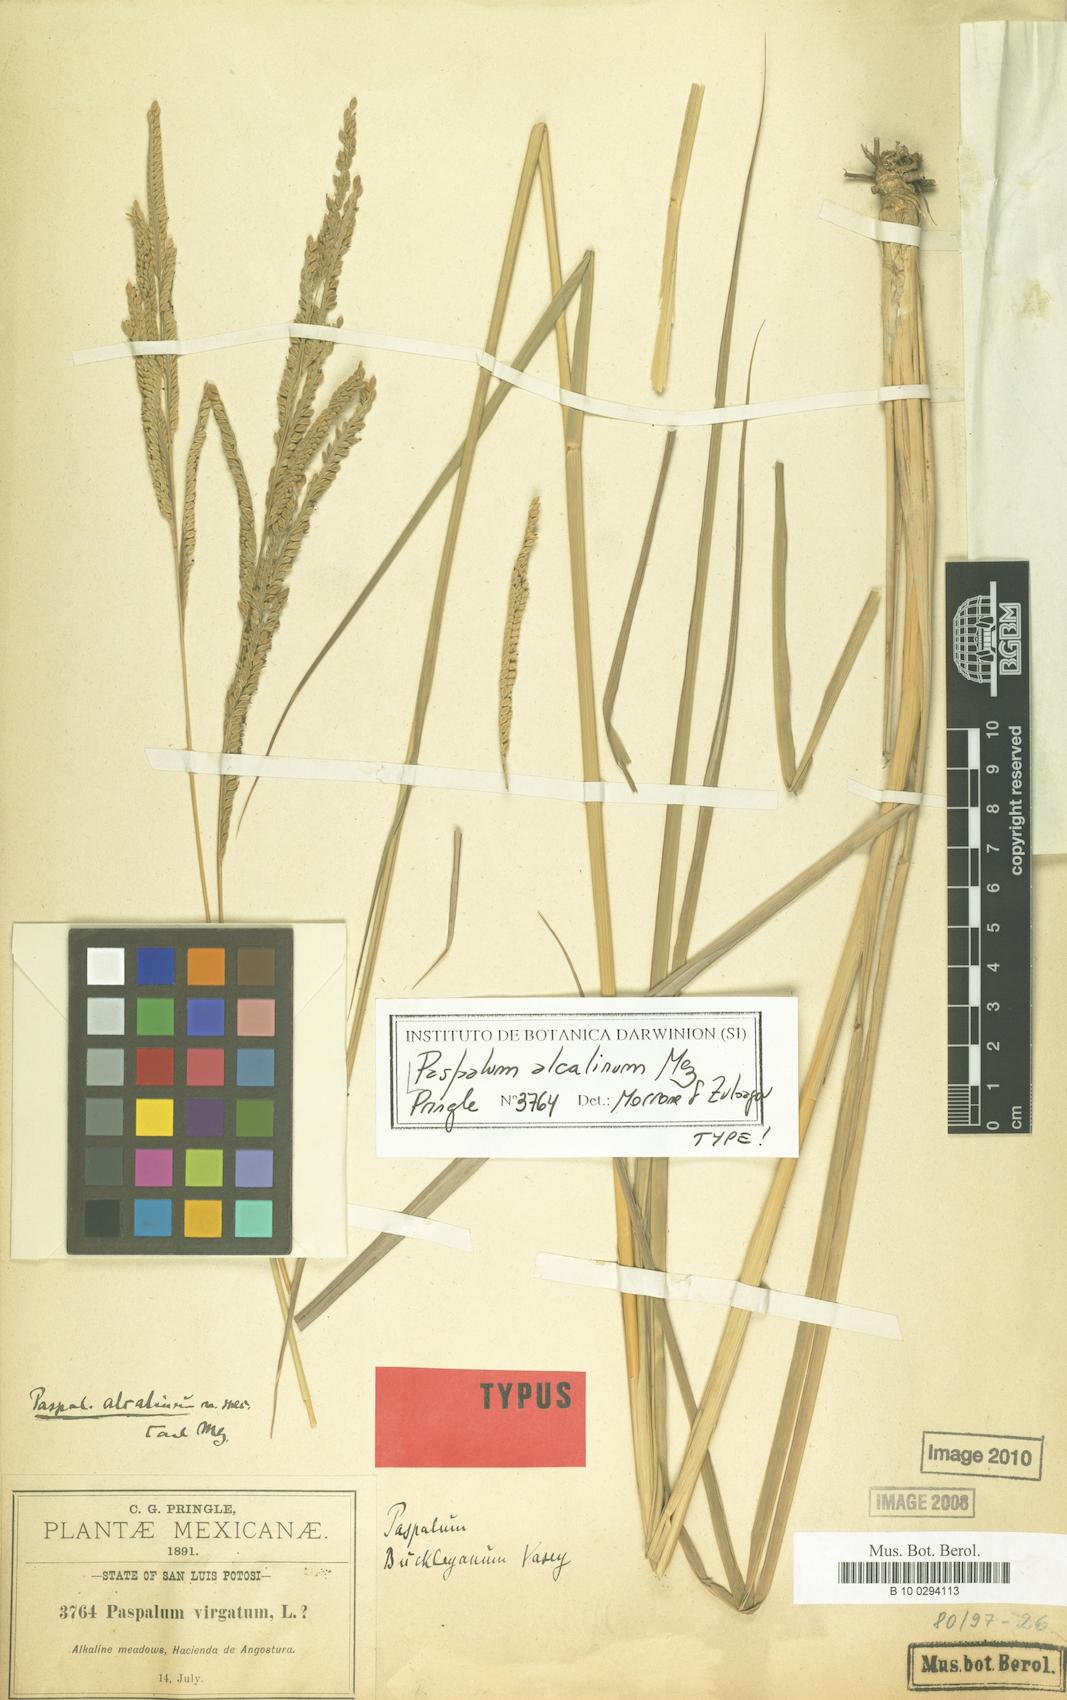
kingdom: Plantae
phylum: Tracheophyta
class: Liliopsida
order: Poales
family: Poaceae
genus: Paspalum
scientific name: Paspalum alcalinum
